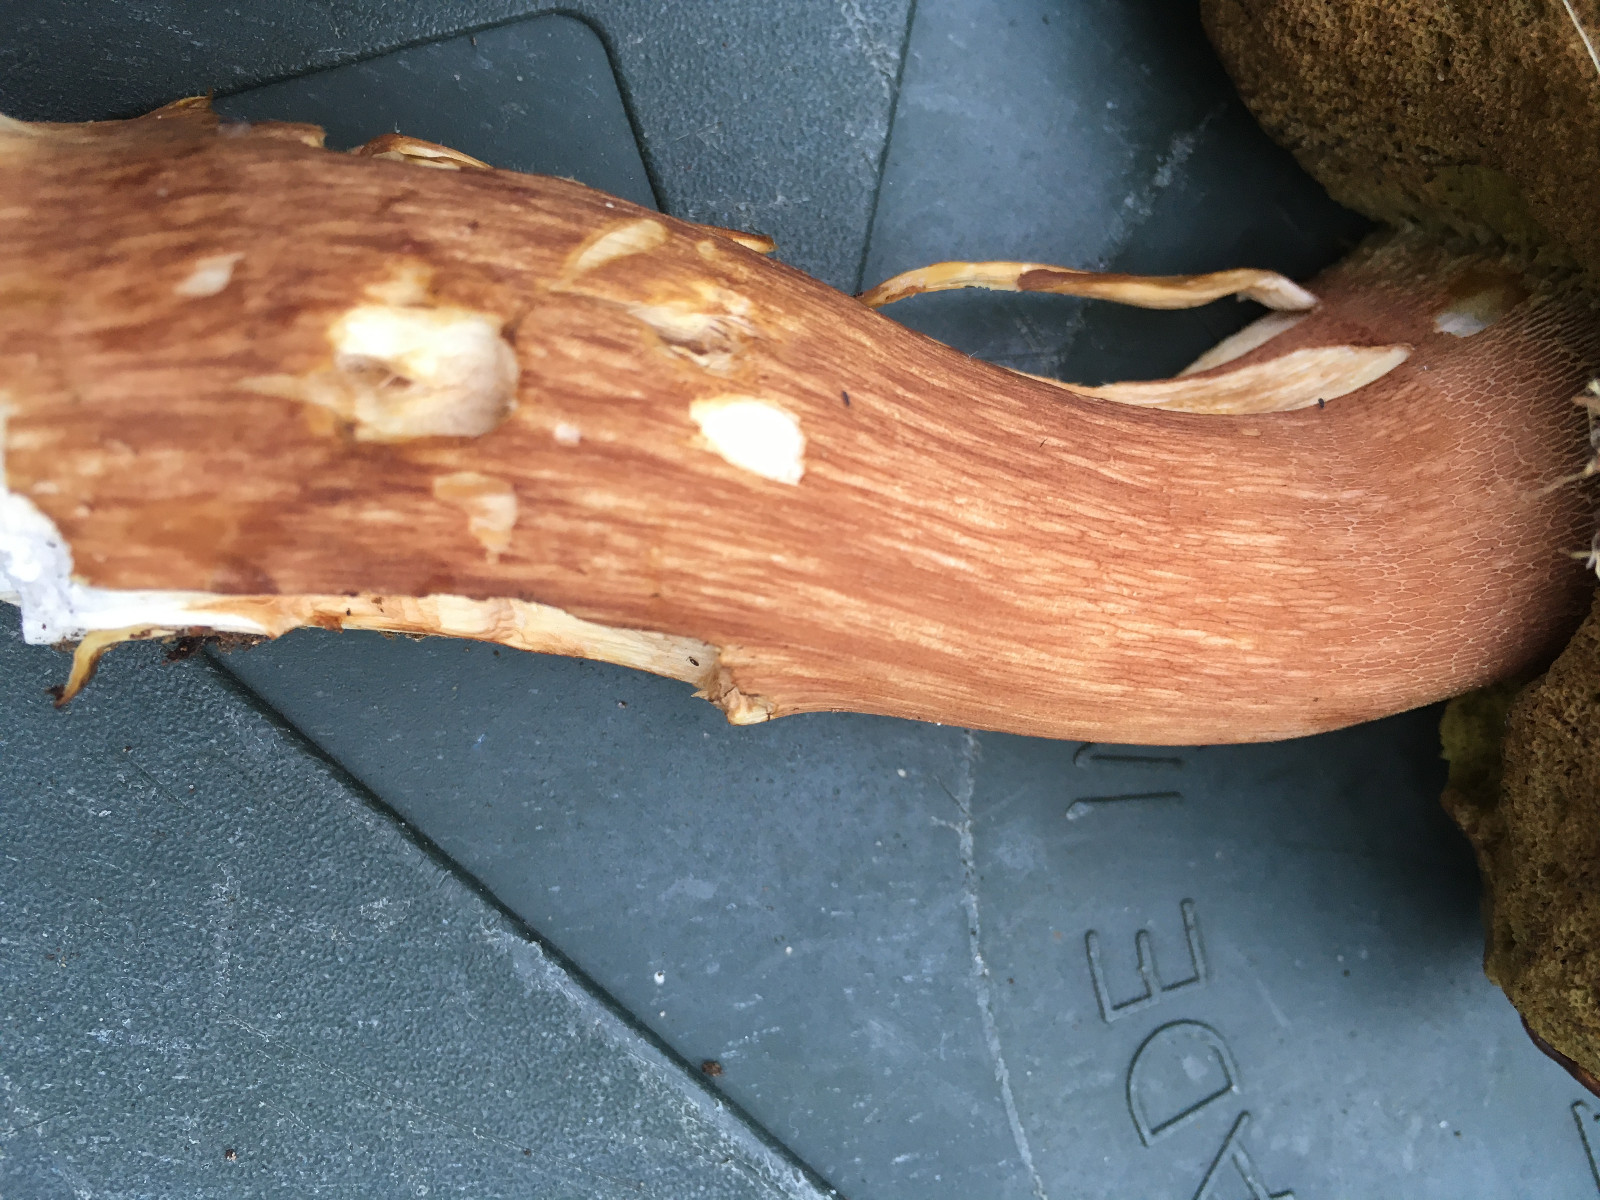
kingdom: Fungi
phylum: Basidiomycota
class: Agaricomycetes
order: Boletales
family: Boletaceae
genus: Boletus
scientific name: Boletus pinophilus
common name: rødbrun rørhat
